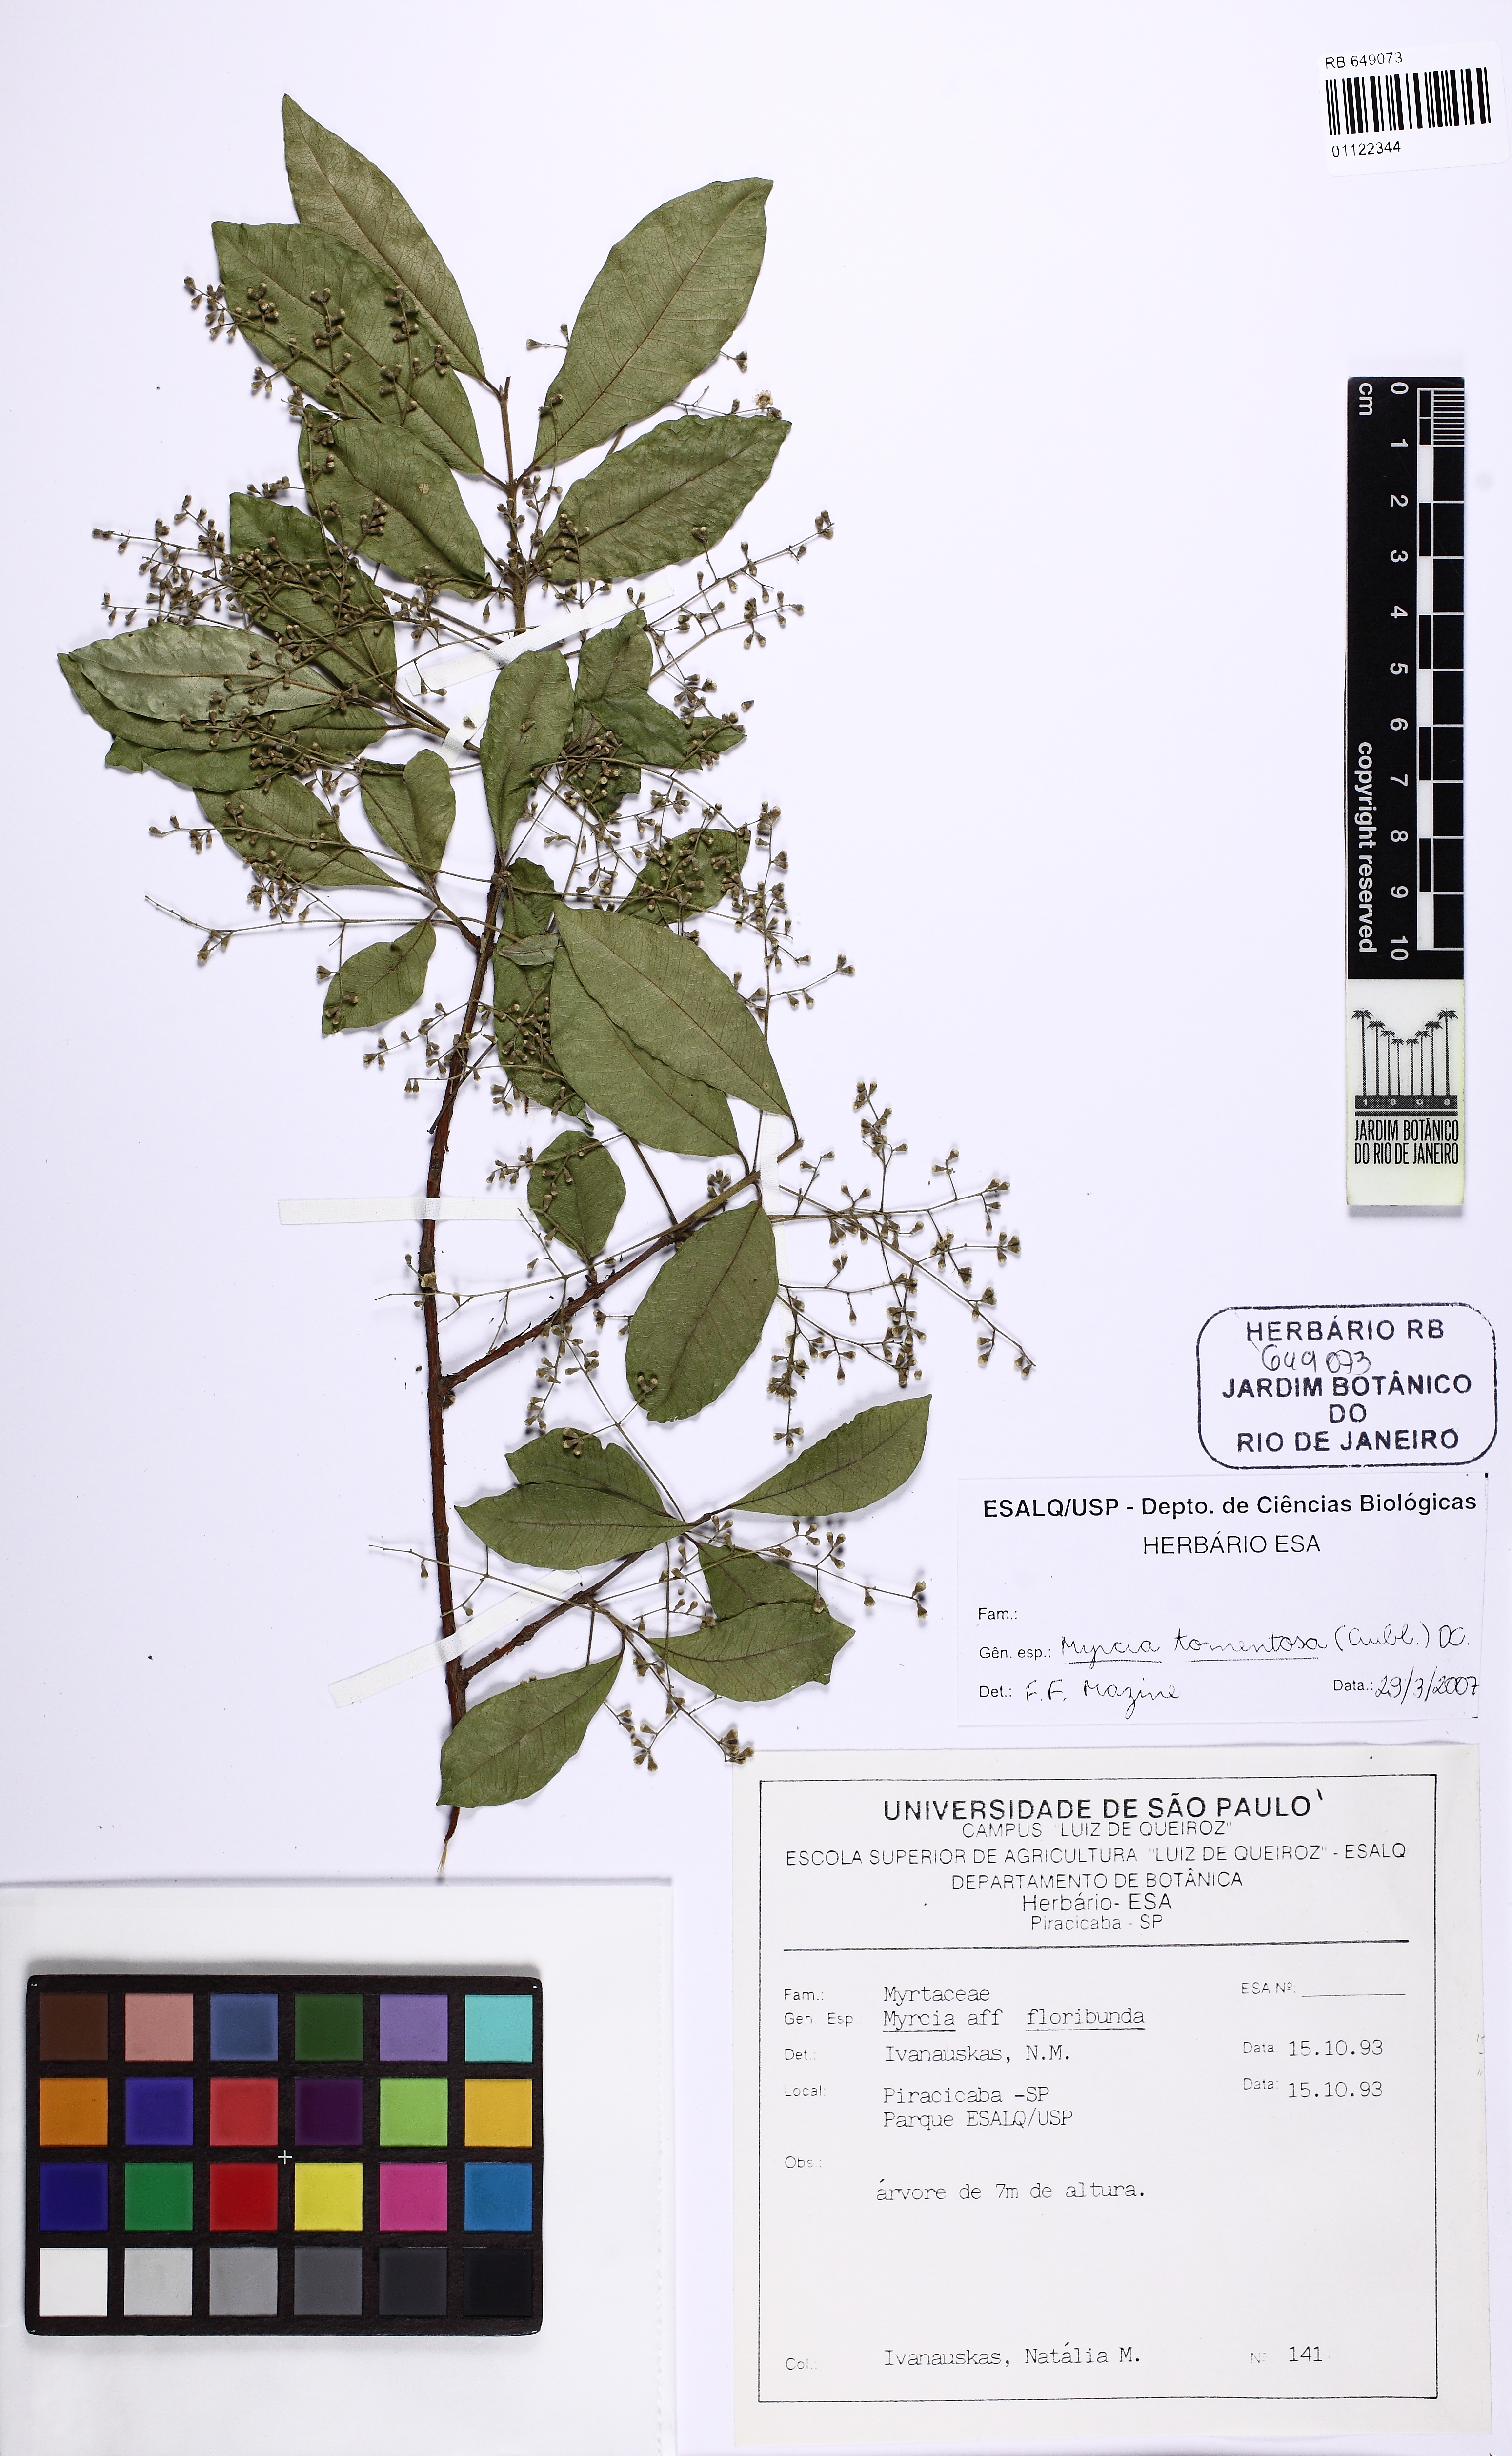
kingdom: Plantae
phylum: Tracheophyta
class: Magnoliopsida
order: Myrtales
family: Myrtaceae
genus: Myrcia
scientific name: Myrcia tomentosa
